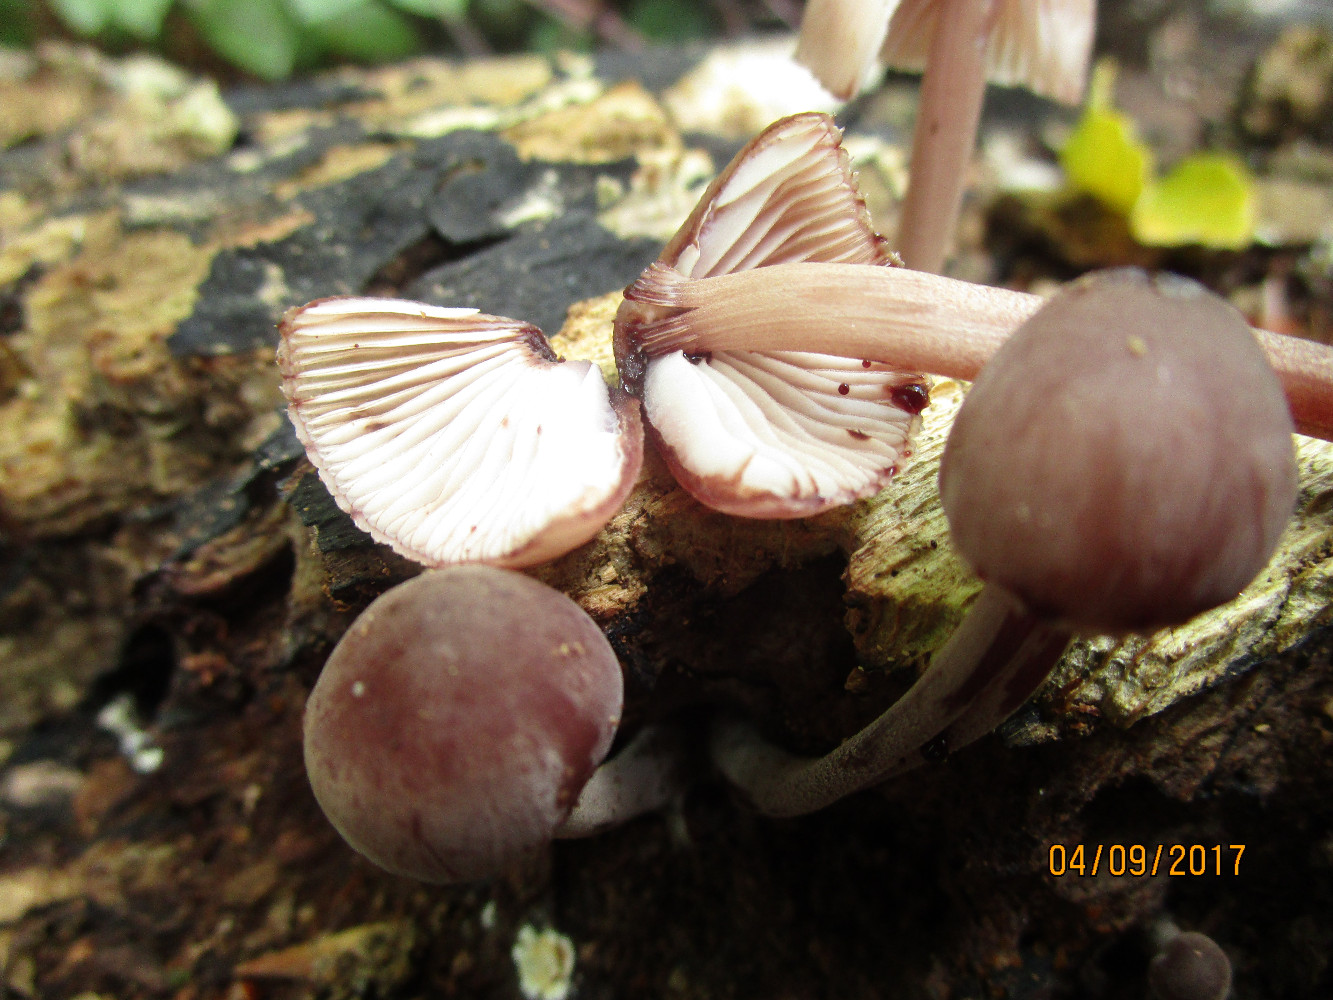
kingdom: Fungi
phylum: Basidiomycota
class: Agaricomycetes
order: Agaricales
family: Mycenaceae
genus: Mycena
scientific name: Mycena haematopus
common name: blødende huesvamp
